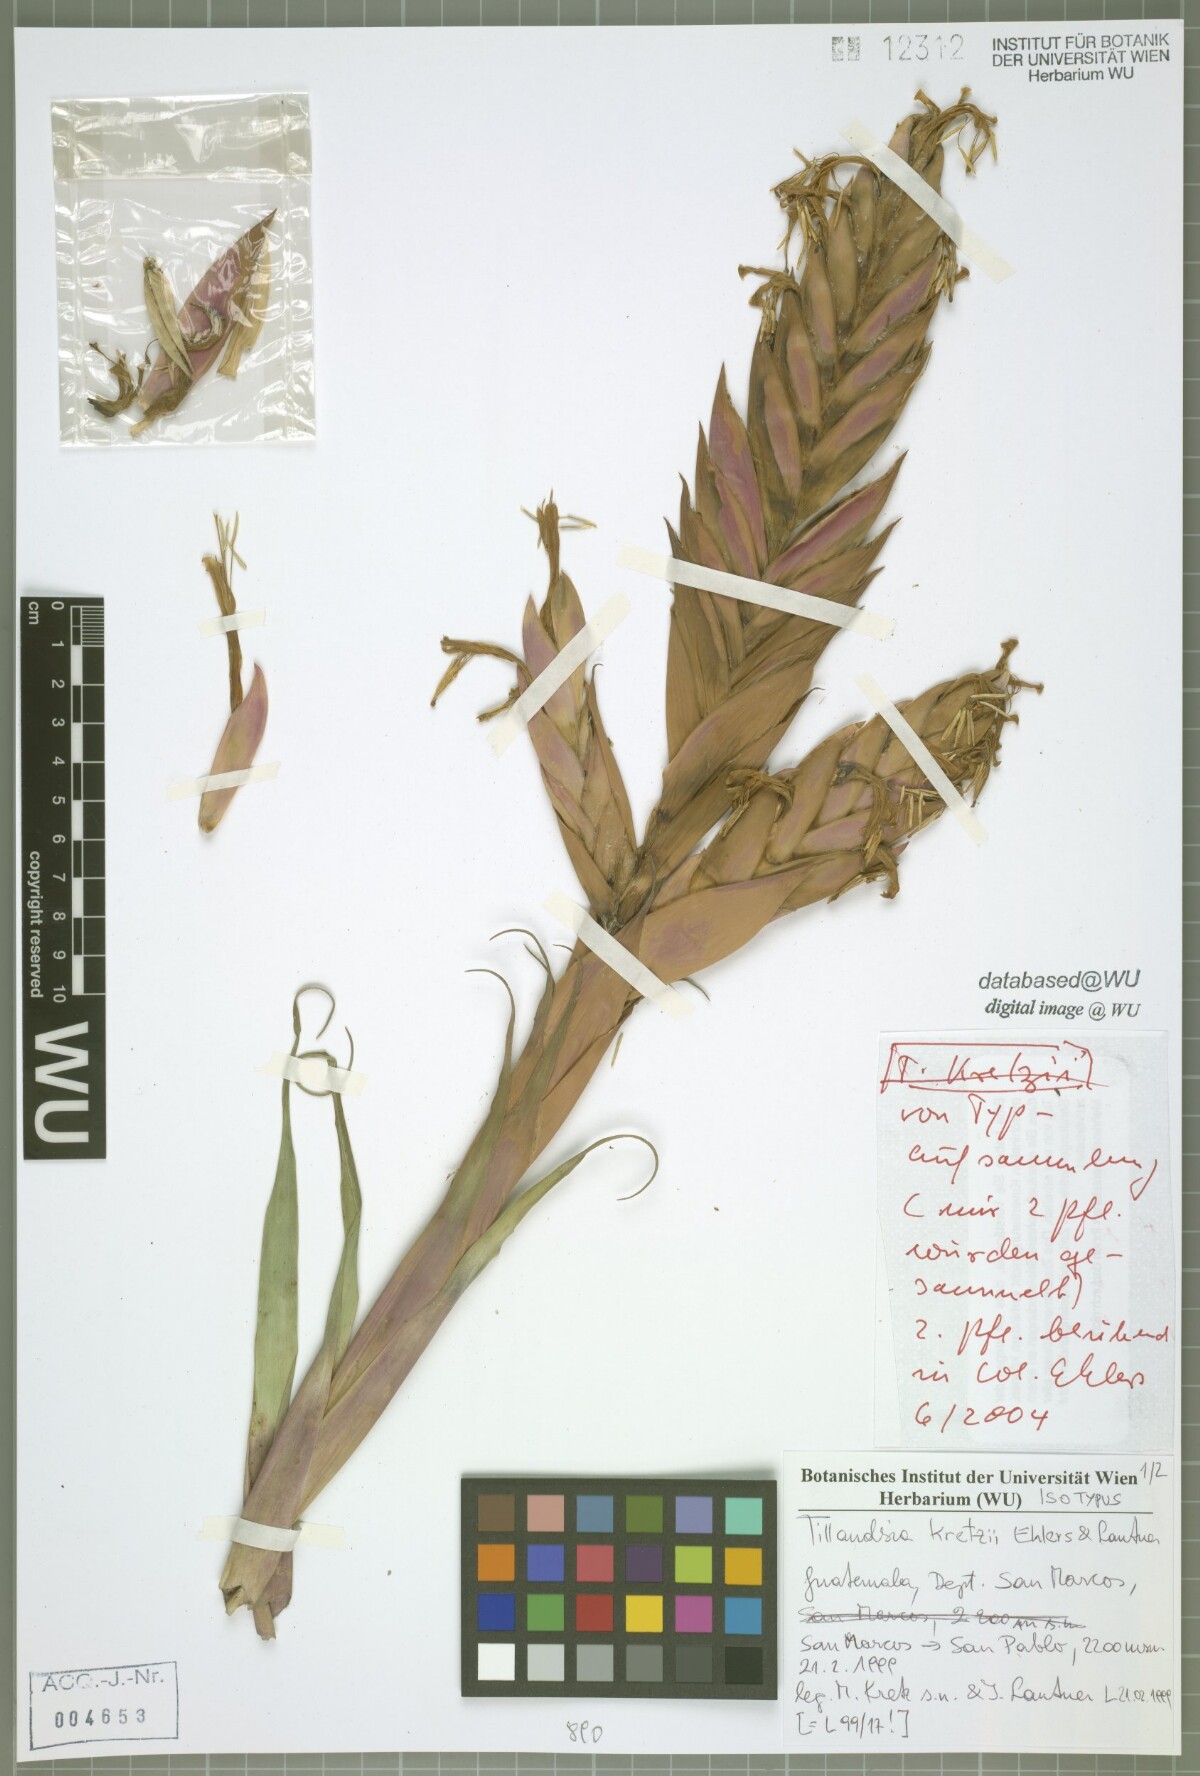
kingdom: Plantae
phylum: Tracheophyta
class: Liliopsida
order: Poales
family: Bromeliaceae
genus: Tillandsia
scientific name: Tillandsia kretzii
